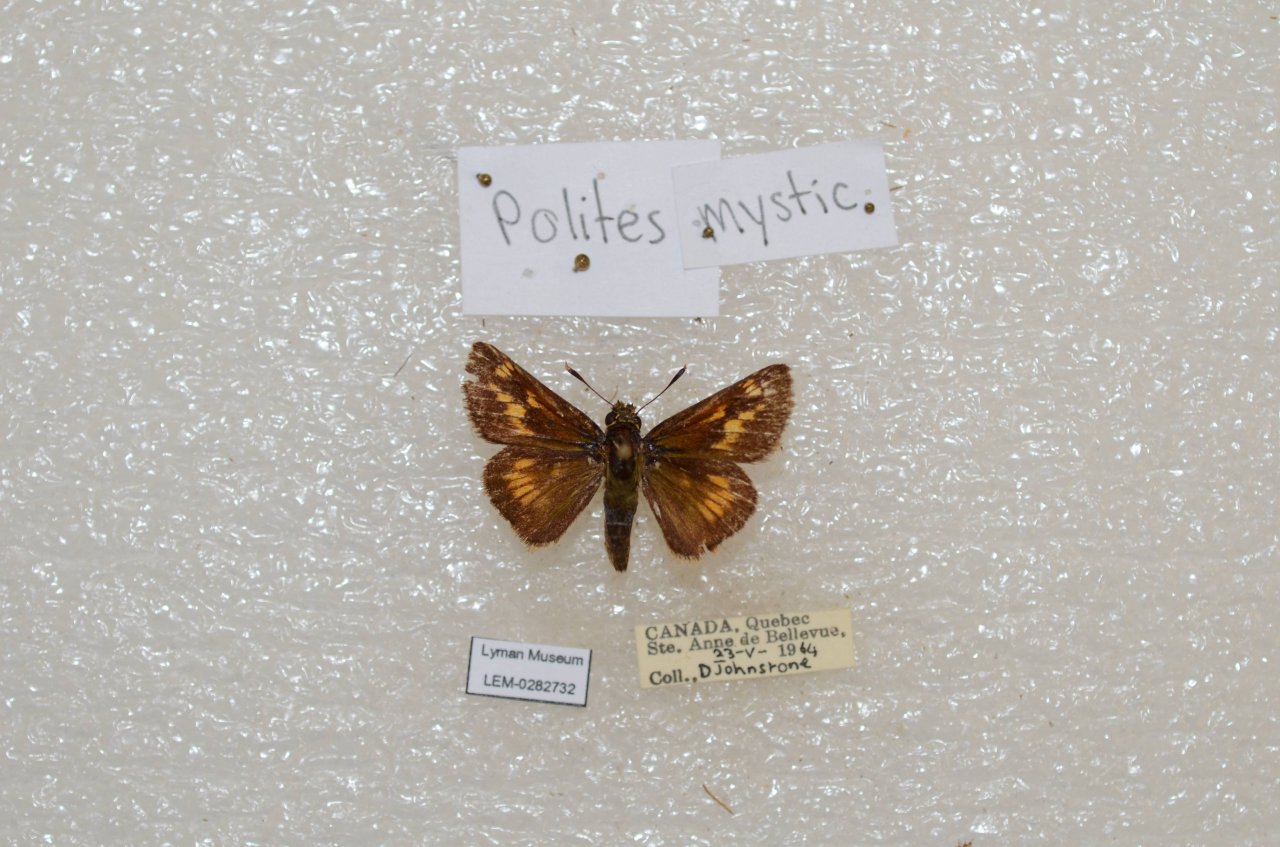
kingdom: Animalia
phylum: Arthropoda
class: Insecta
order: Lepidoptera
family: Hesperiidae
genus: Polites
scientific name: Polites
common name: Long Dash Skipper
